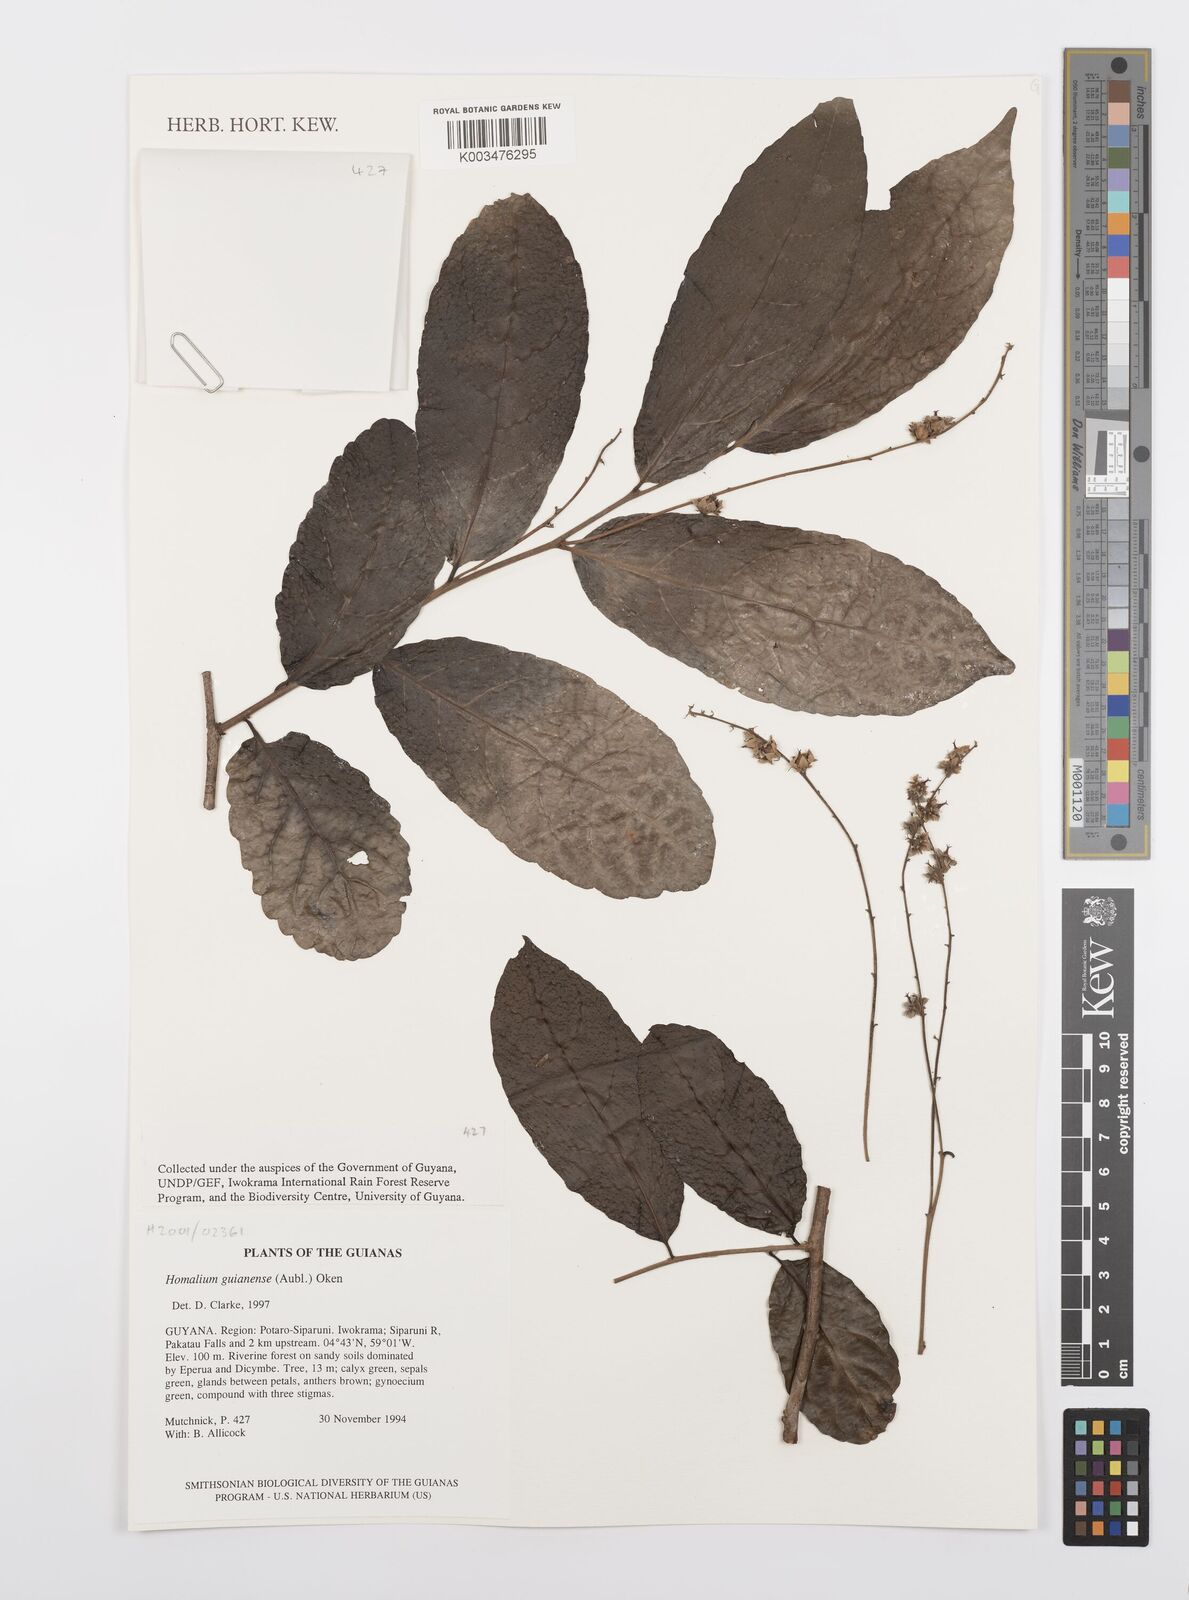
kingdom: Plantae
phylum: Tracheophyta
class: Magnoliopsida
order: Malpighiales
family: Salicaceae
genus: Homalium
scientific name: Homalium guianense
